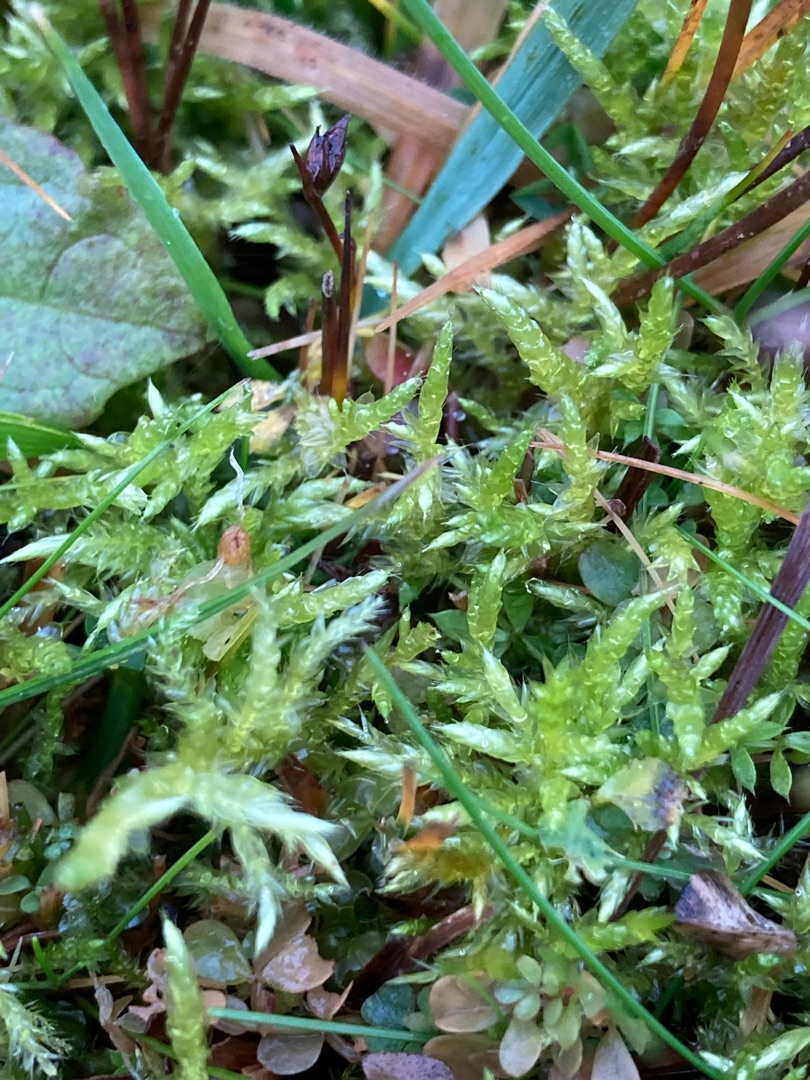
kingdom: Plantae
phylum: Bryophyta
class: Bryopsida
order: Hypnales
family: Brachytheciaceae
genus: Cirriphyllum
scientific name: Cirriphyllum piliferum
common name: Almindelig penselmos
